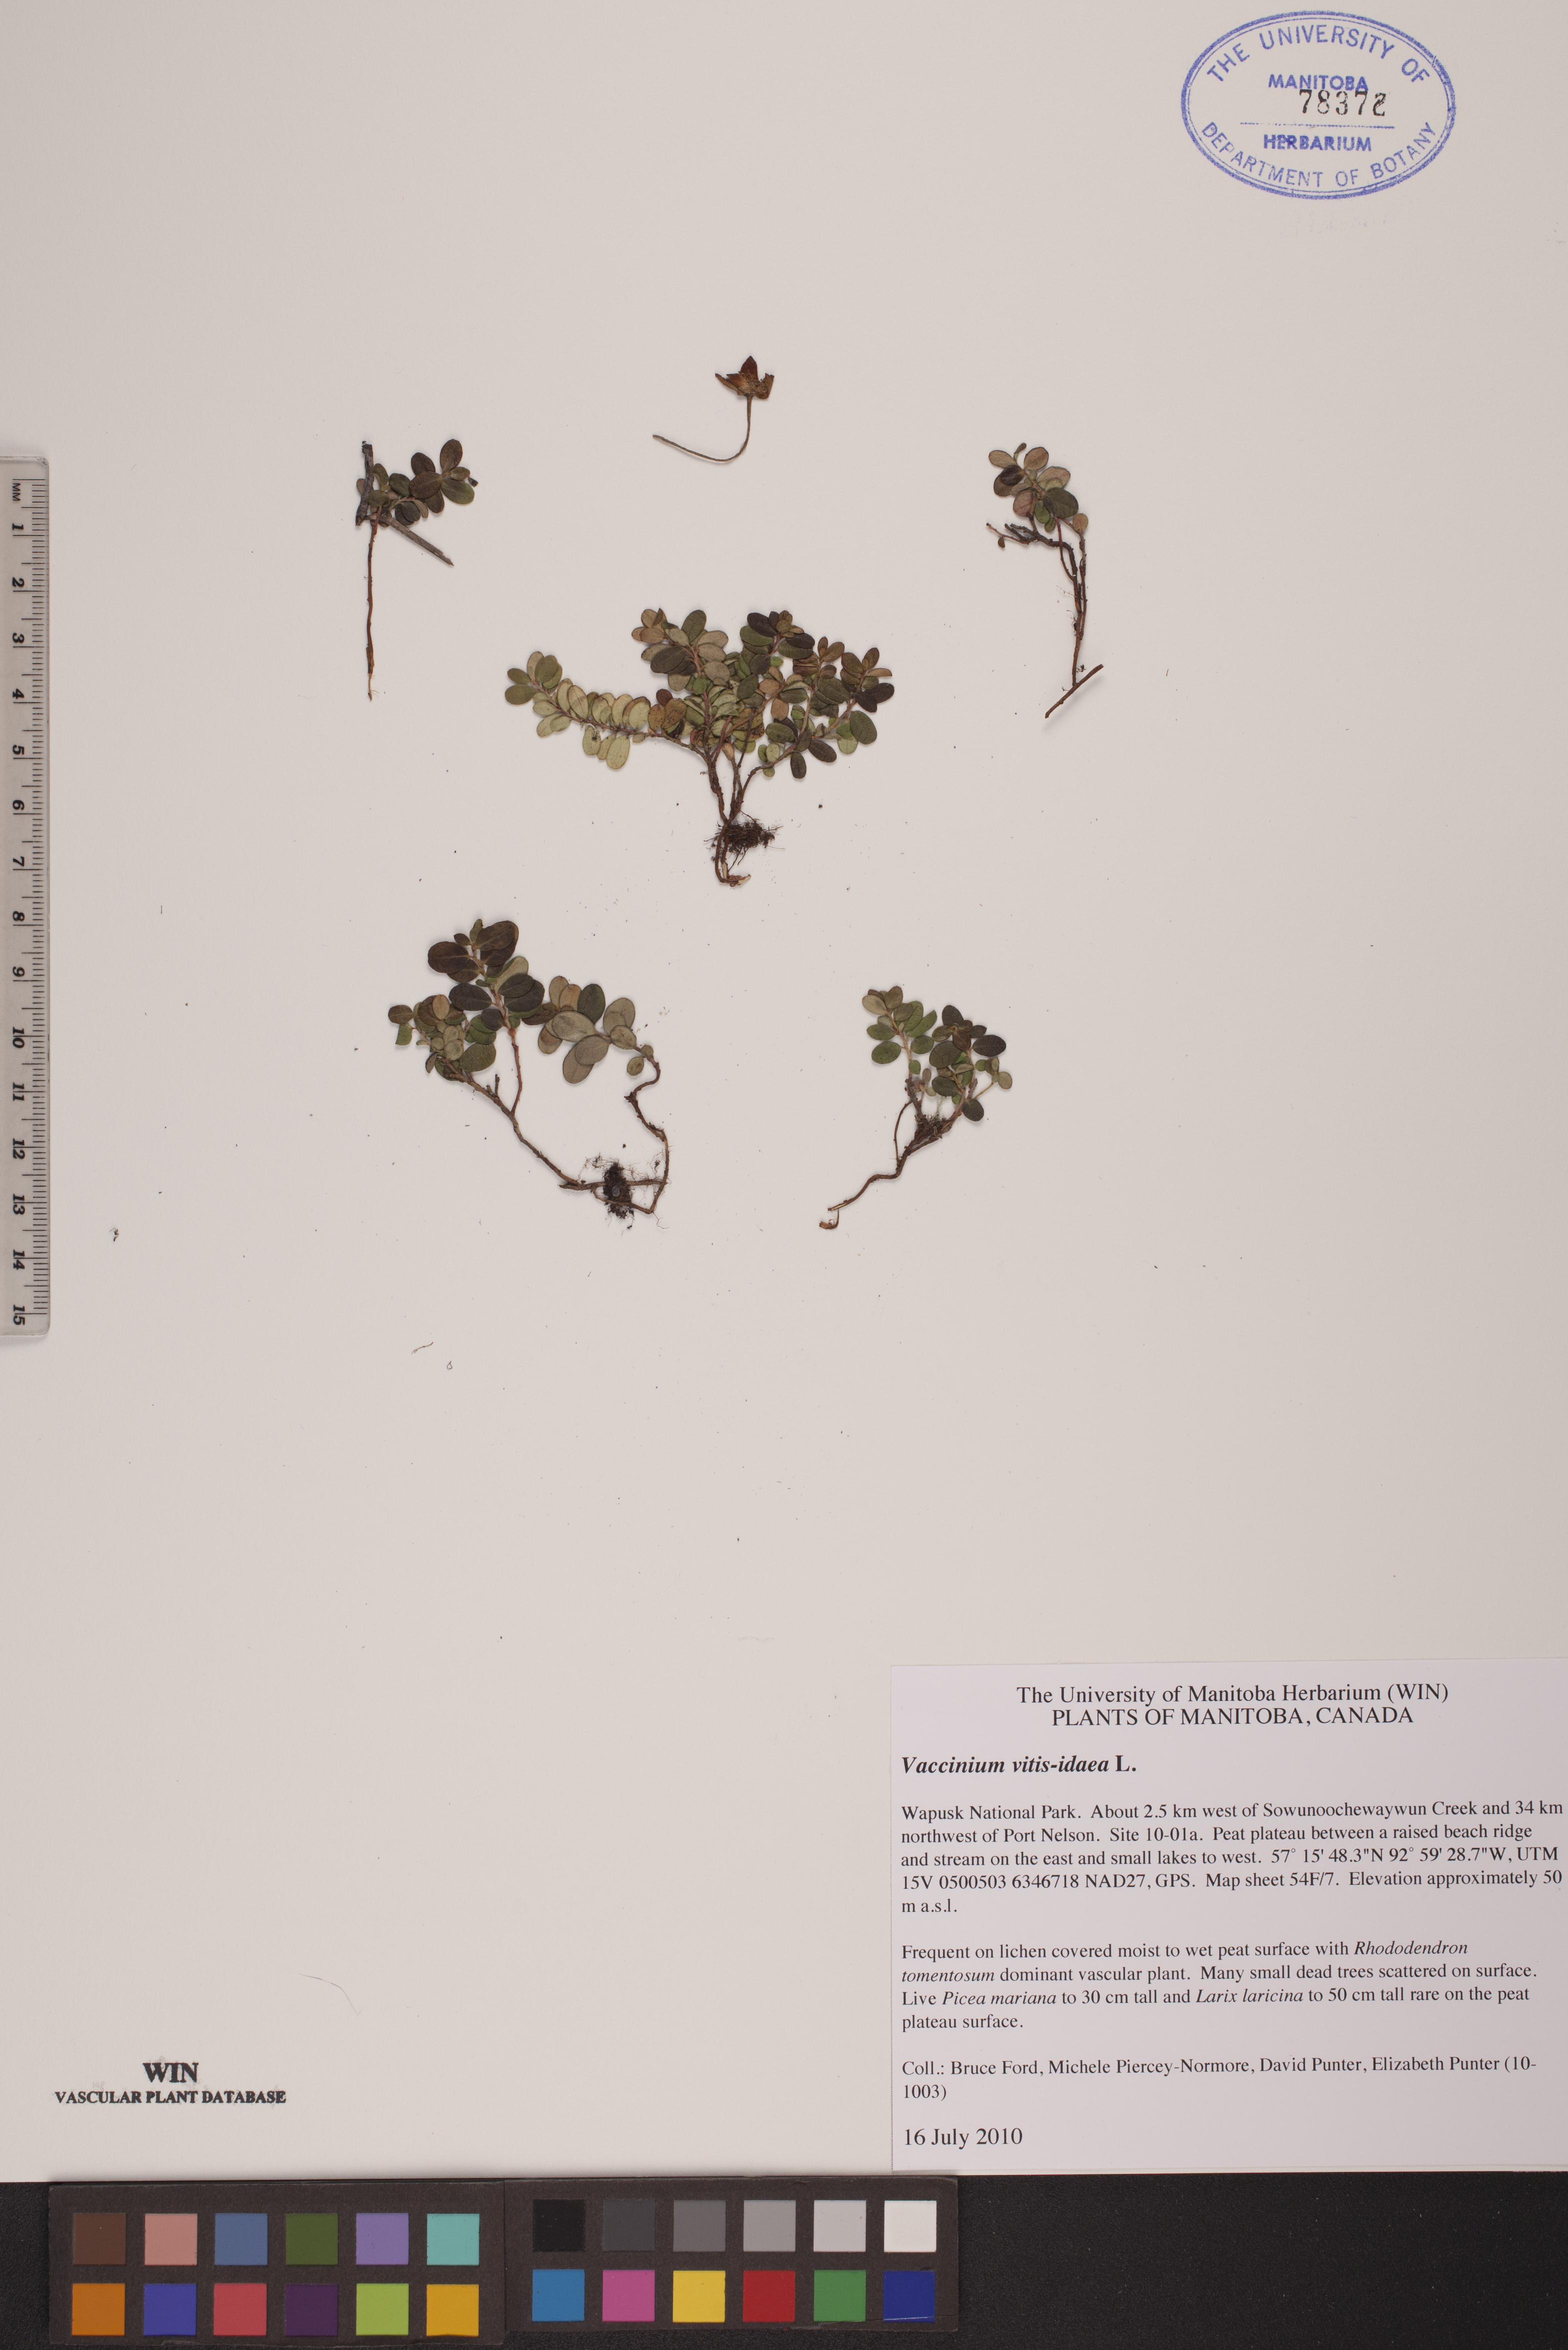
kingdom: Plantae
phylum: Tracheophyta
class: Magnoliopsida
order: Ericales
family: Ericaceae
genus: Vaccinium
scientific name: Vaccinium vitis-idaea
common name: Cowberry
